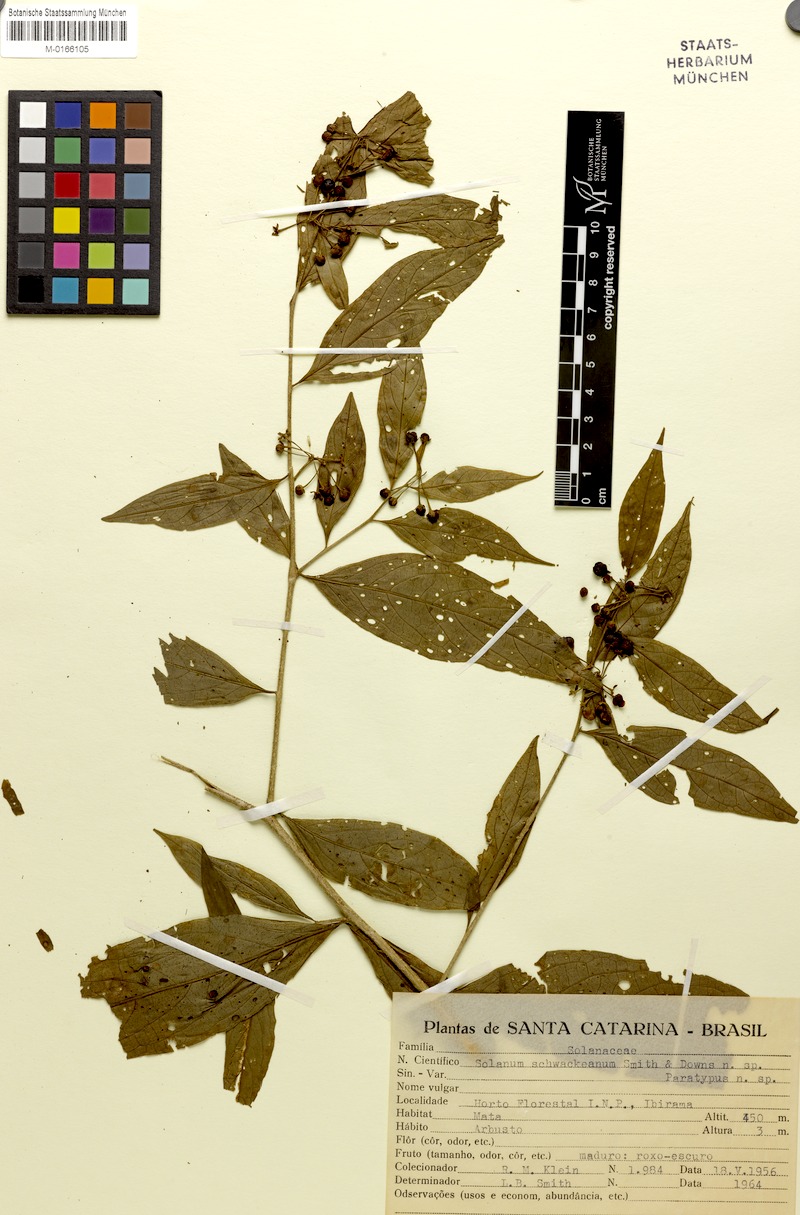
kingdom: Plantae
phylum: Tracheophyta
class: Magnoliopsida
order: Solanales
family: Solanaceae
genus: Solanum
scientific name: Solanum schwackeanum
